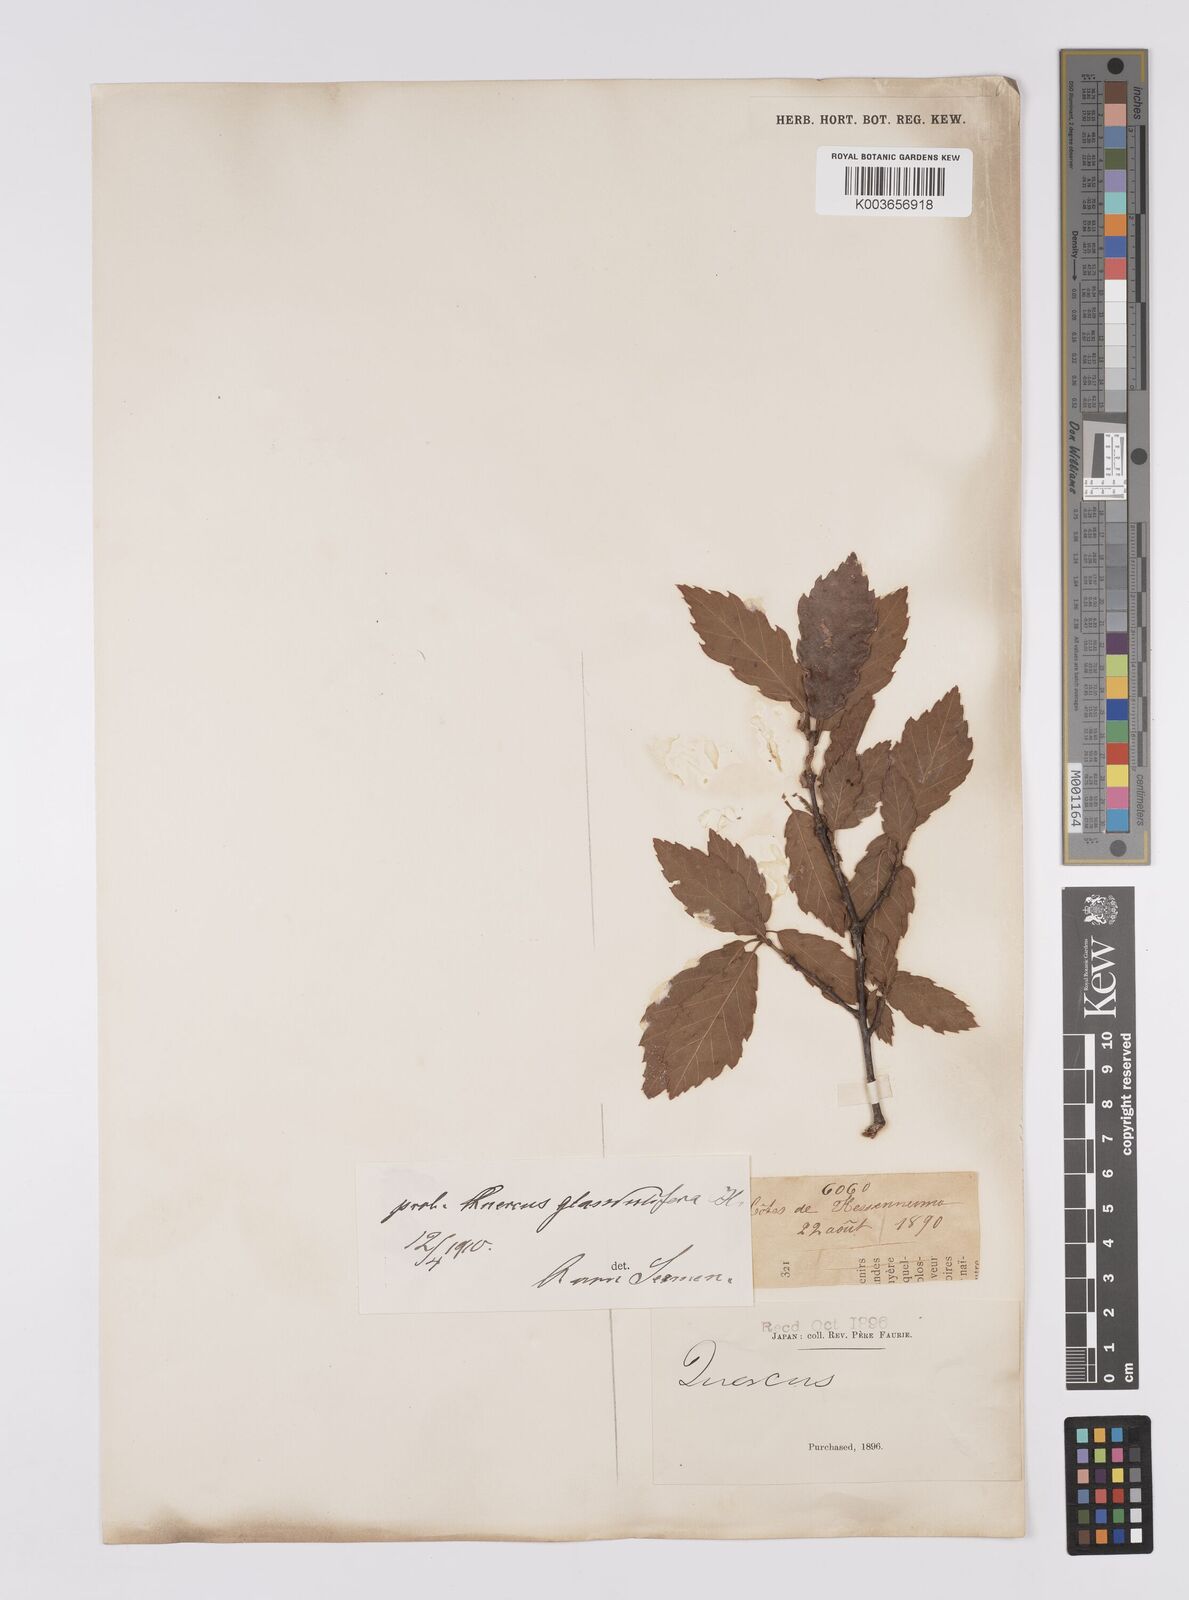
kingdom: Plantae
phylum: Tracheophyta
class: Magnoliopsida
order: Fagales
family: Fagaceae
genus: Quercus
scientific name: Quercus
